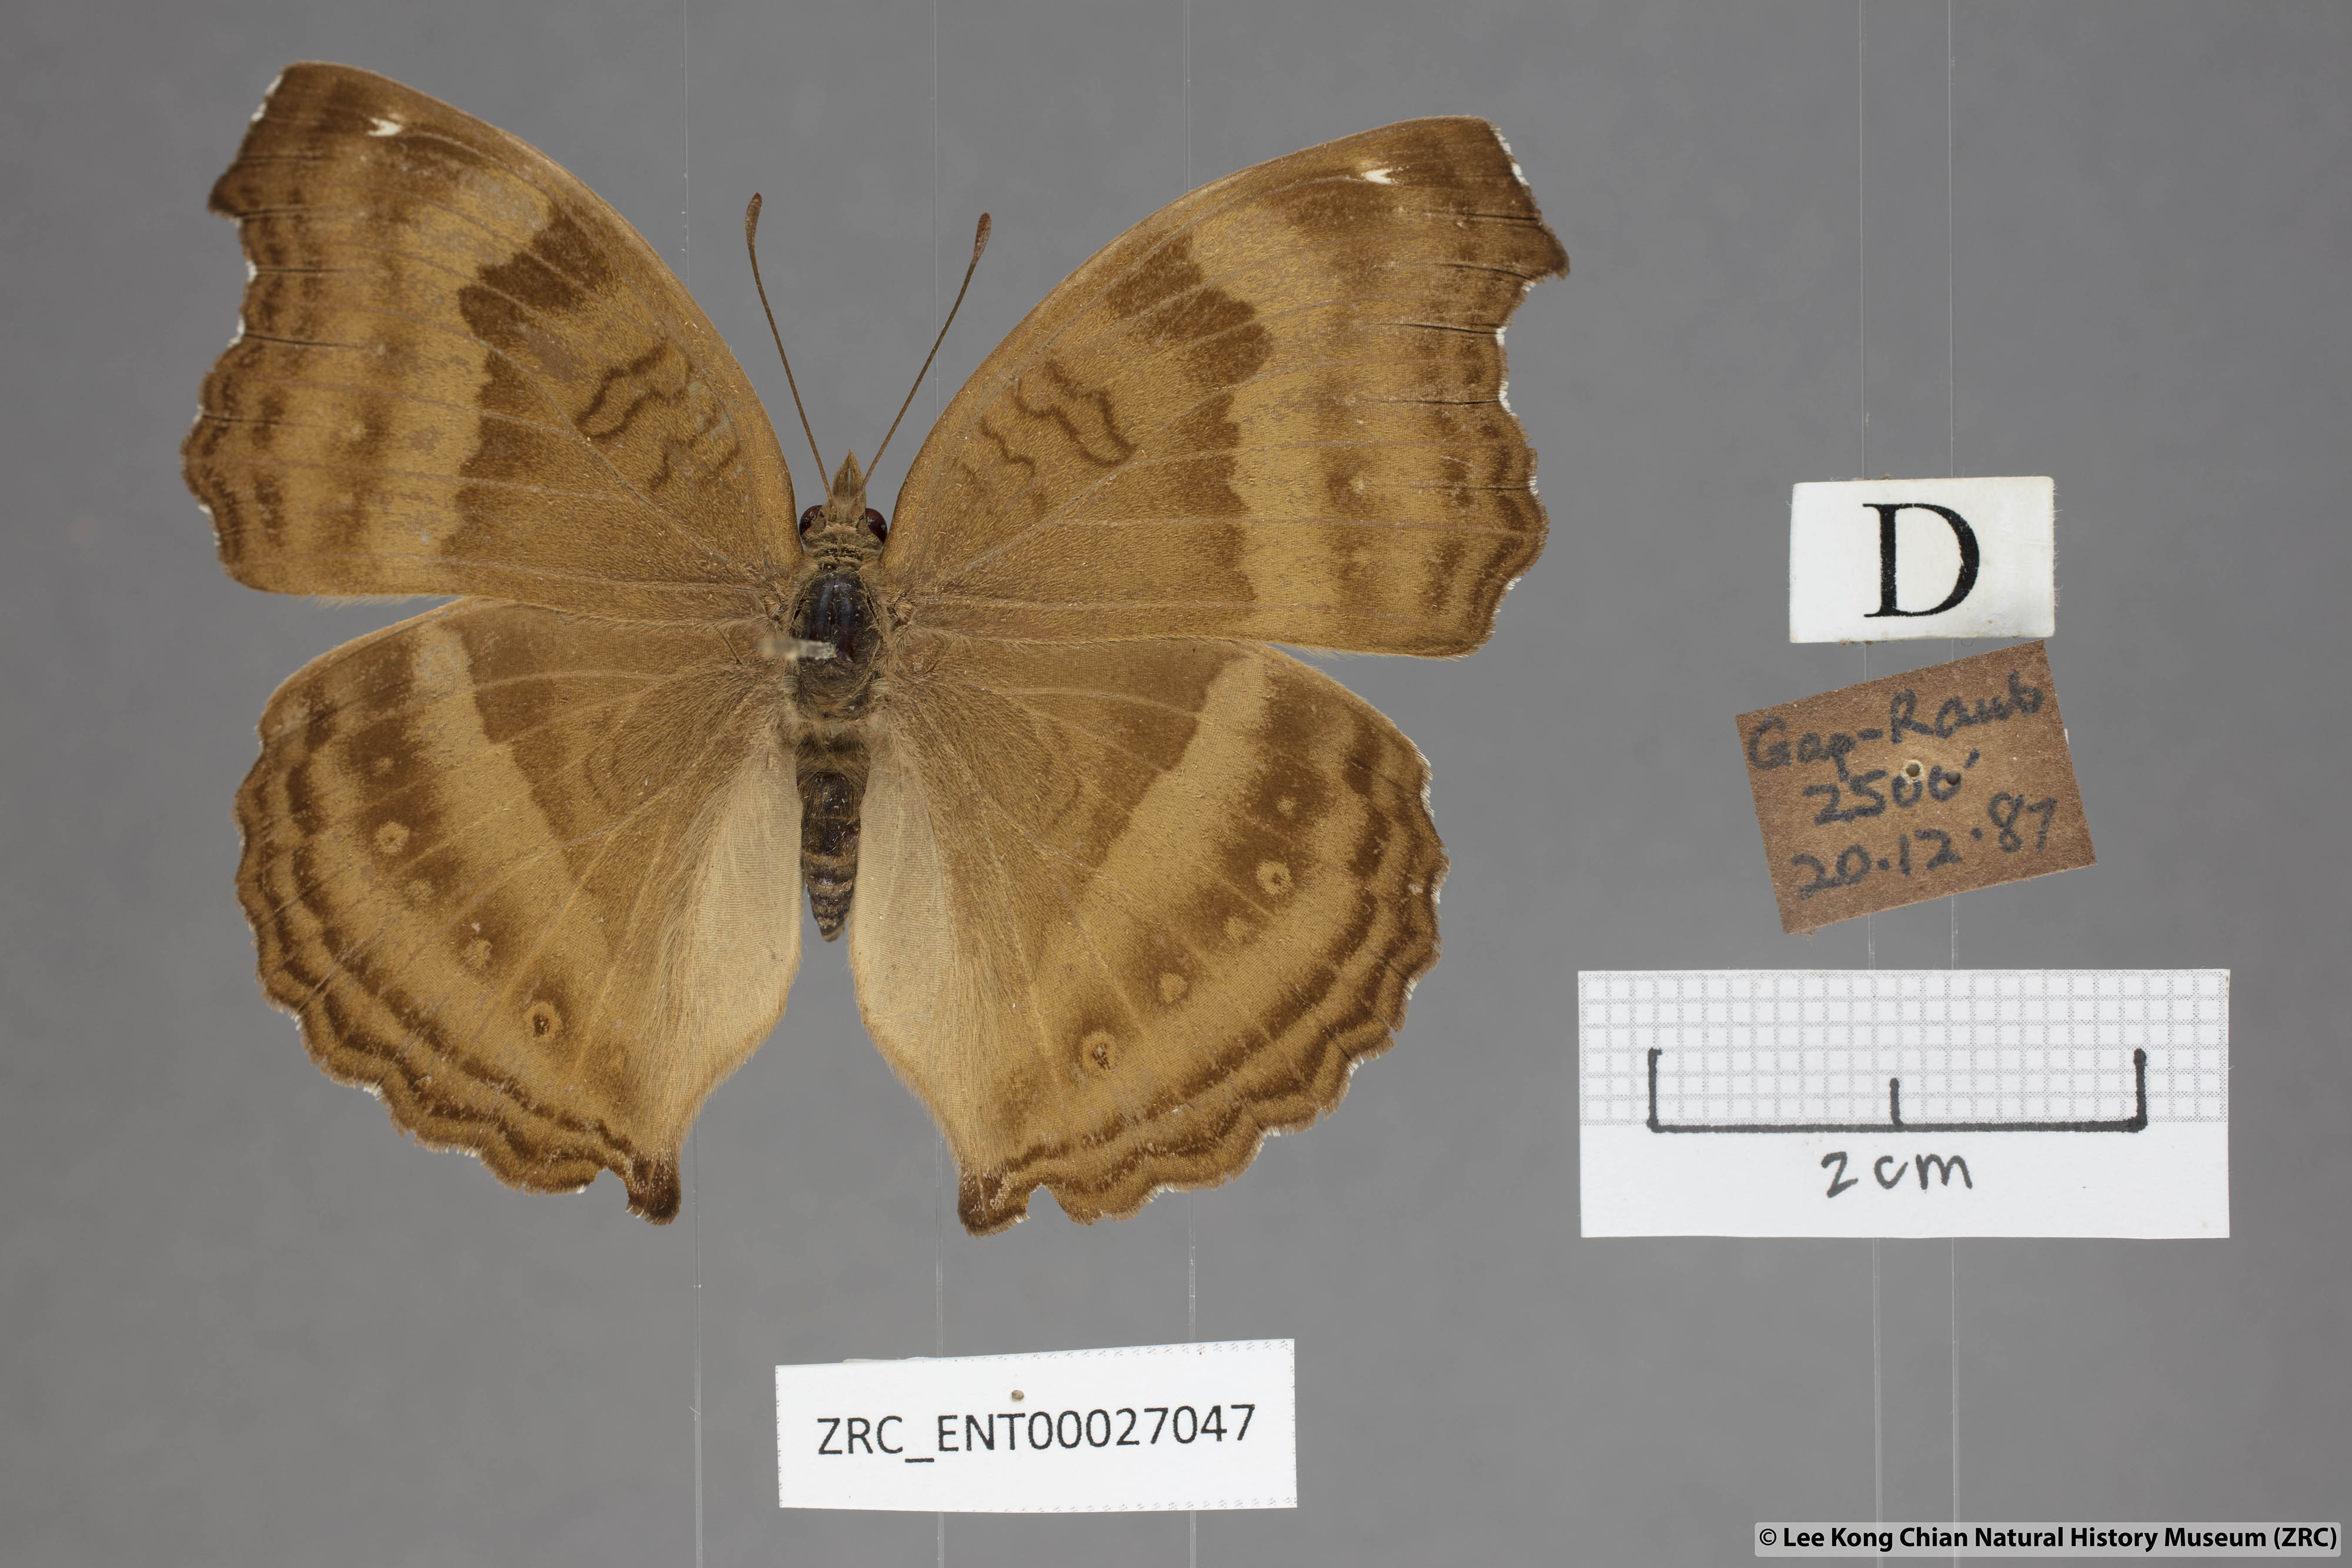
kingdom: Animalia
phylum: Arthropoda
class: Insecta
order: Lepidoptera
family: Nymphalidae
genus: Junonia
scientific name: Junonia iphita
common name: Chocolate pansy
